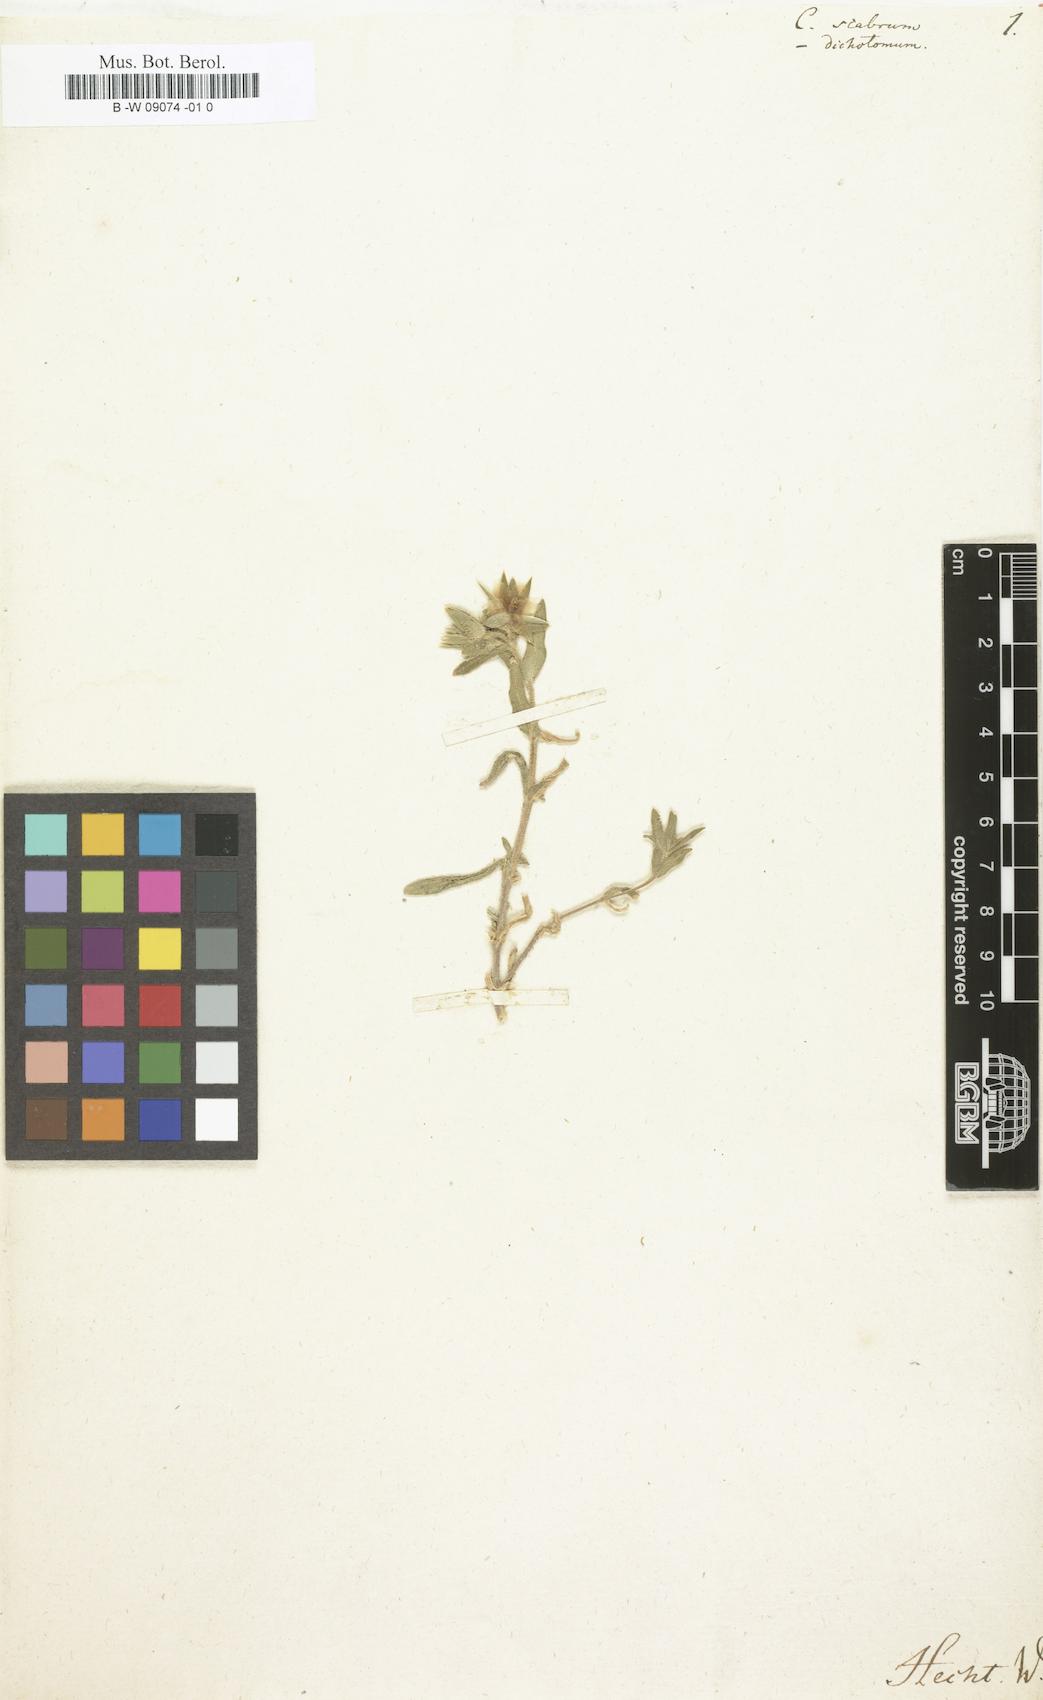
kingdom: Plantae
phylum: Tracheophyta
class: Magnoliopsida
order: Caryophyllales
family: Caryophyllaceae
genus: Cerastium
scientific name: Cerastium
